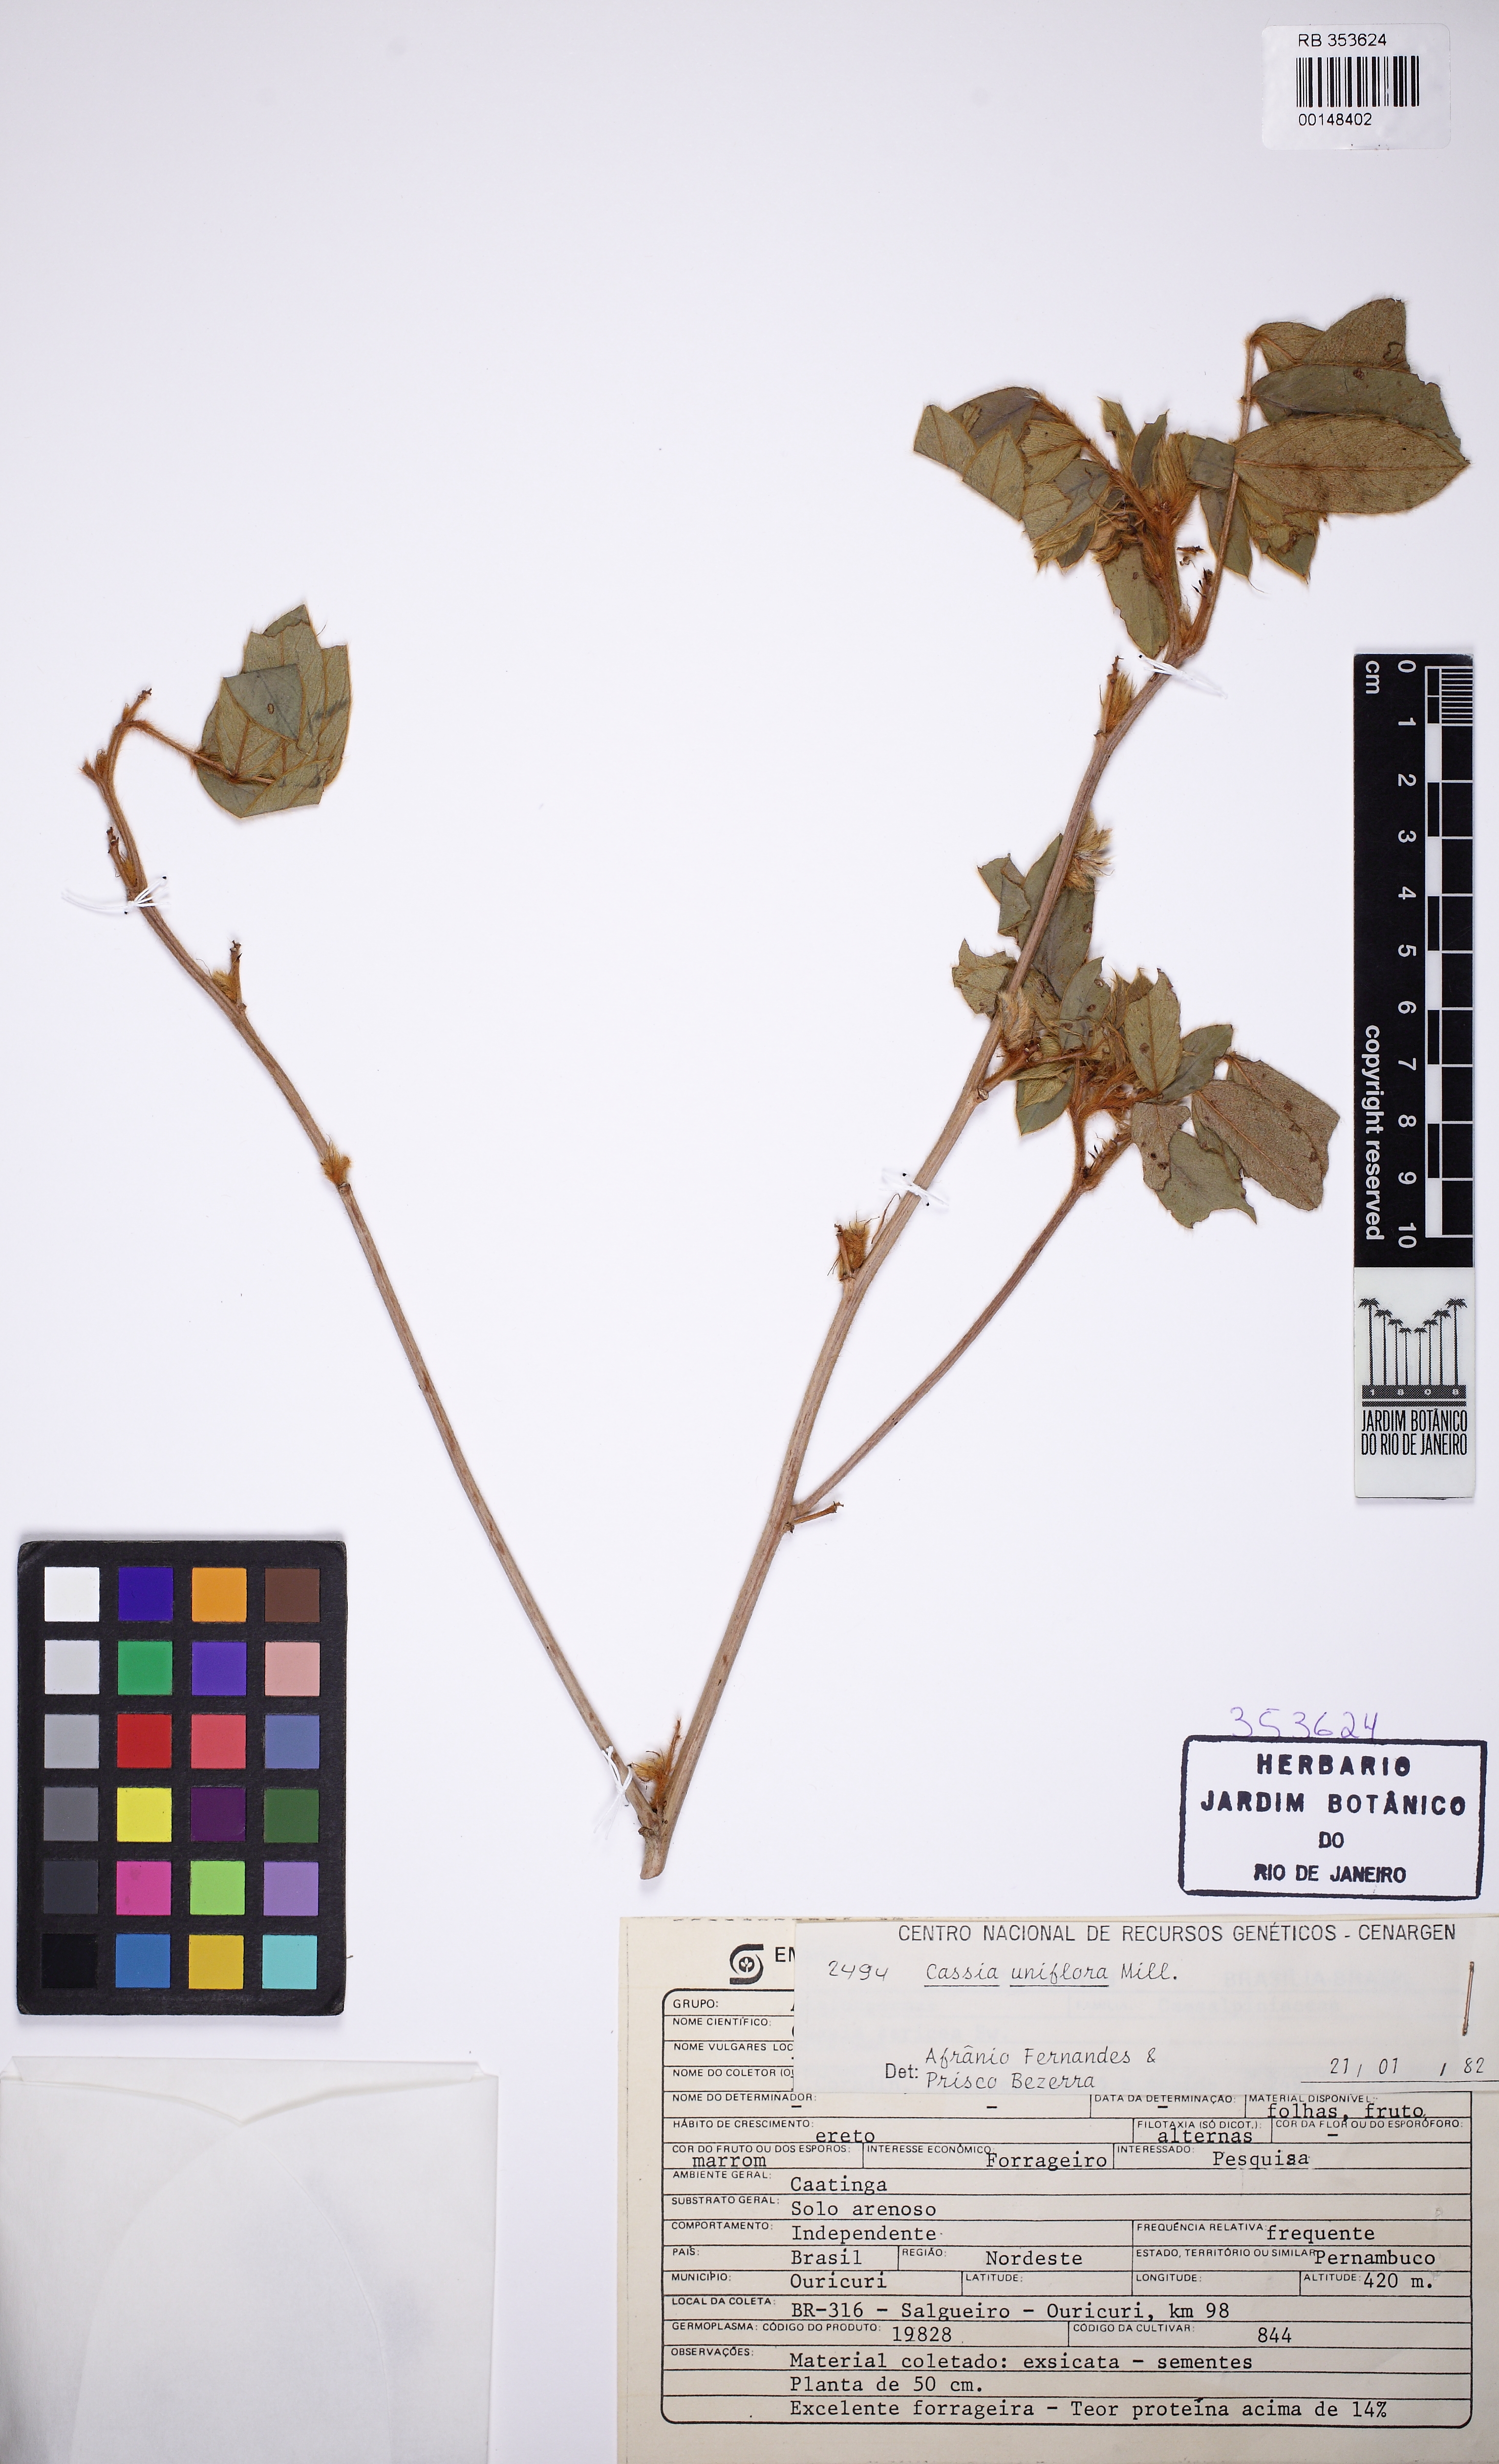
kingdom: Plantae
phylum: Tracheophyta
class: Magnoliopsida
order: Fabales
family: Fabaceae
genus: Senna
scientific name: Senna uniflora
